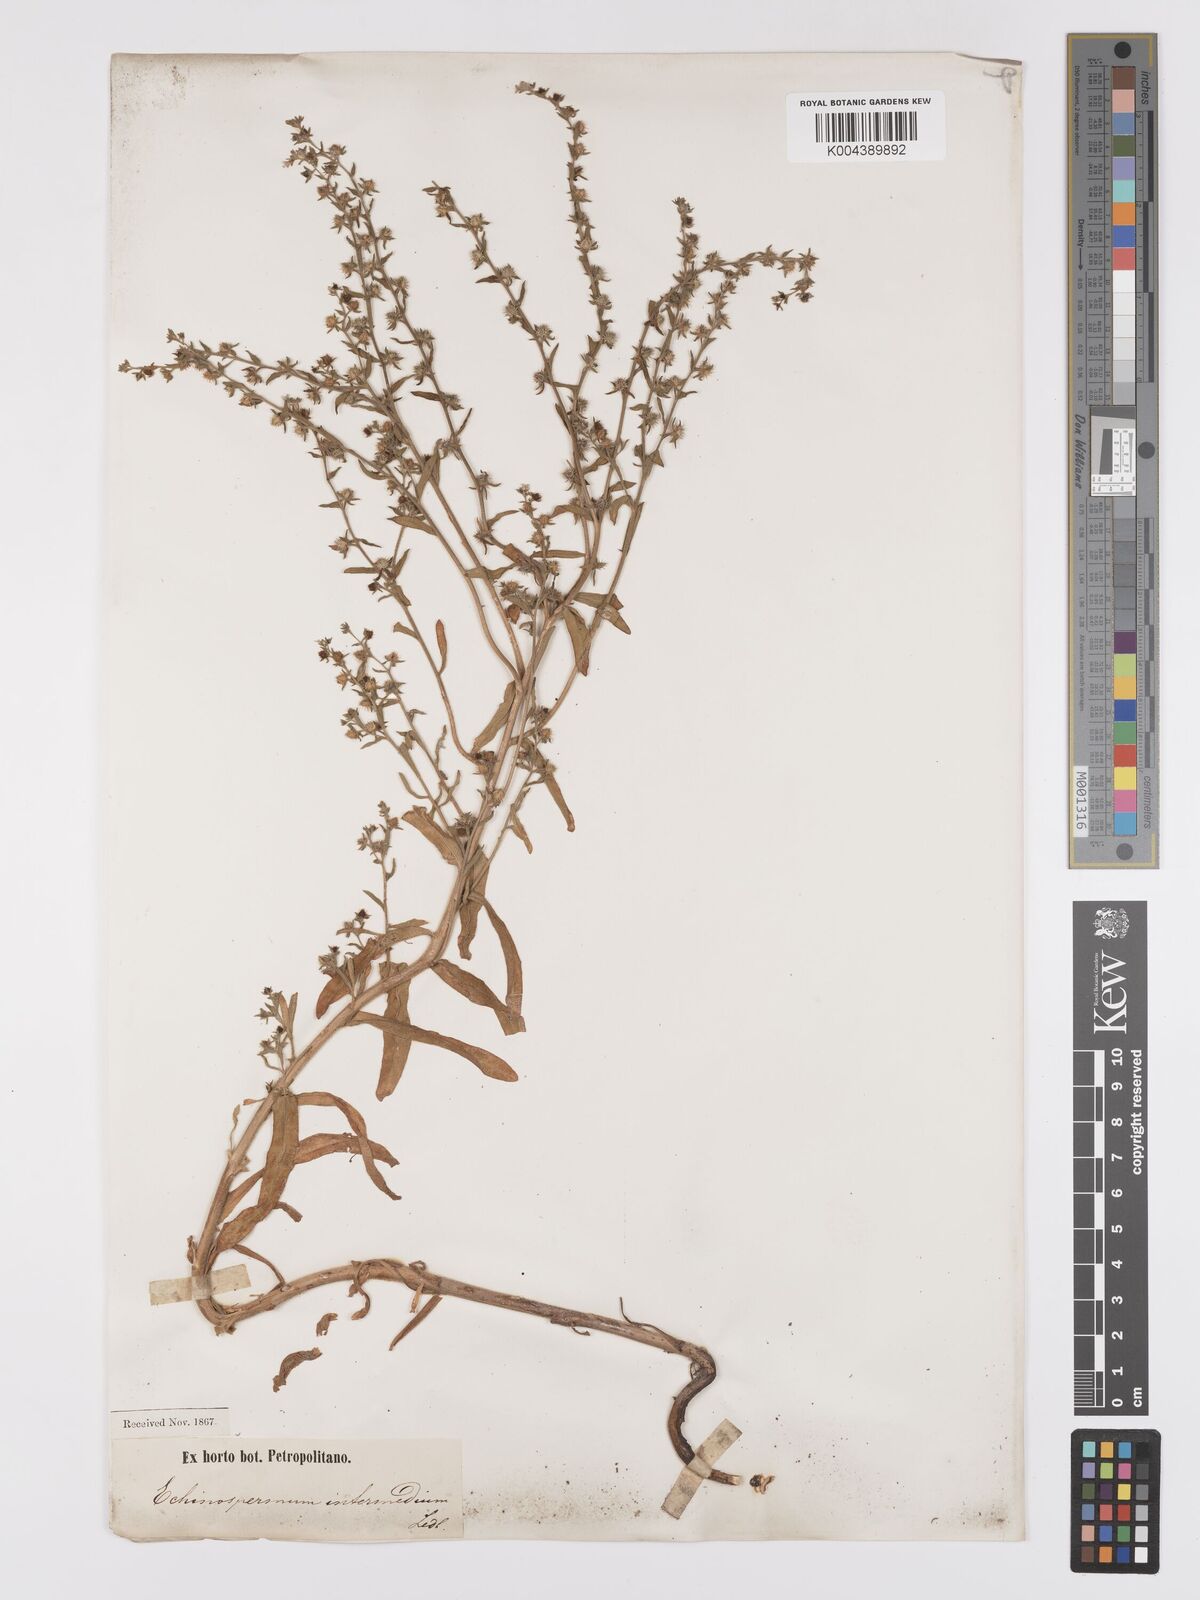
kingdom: Plantae
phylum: Tracheophyta
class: Magnoliopsida
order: Boraginales
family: Boraginaceae
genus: Lappula
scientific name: Lappula redowskii
